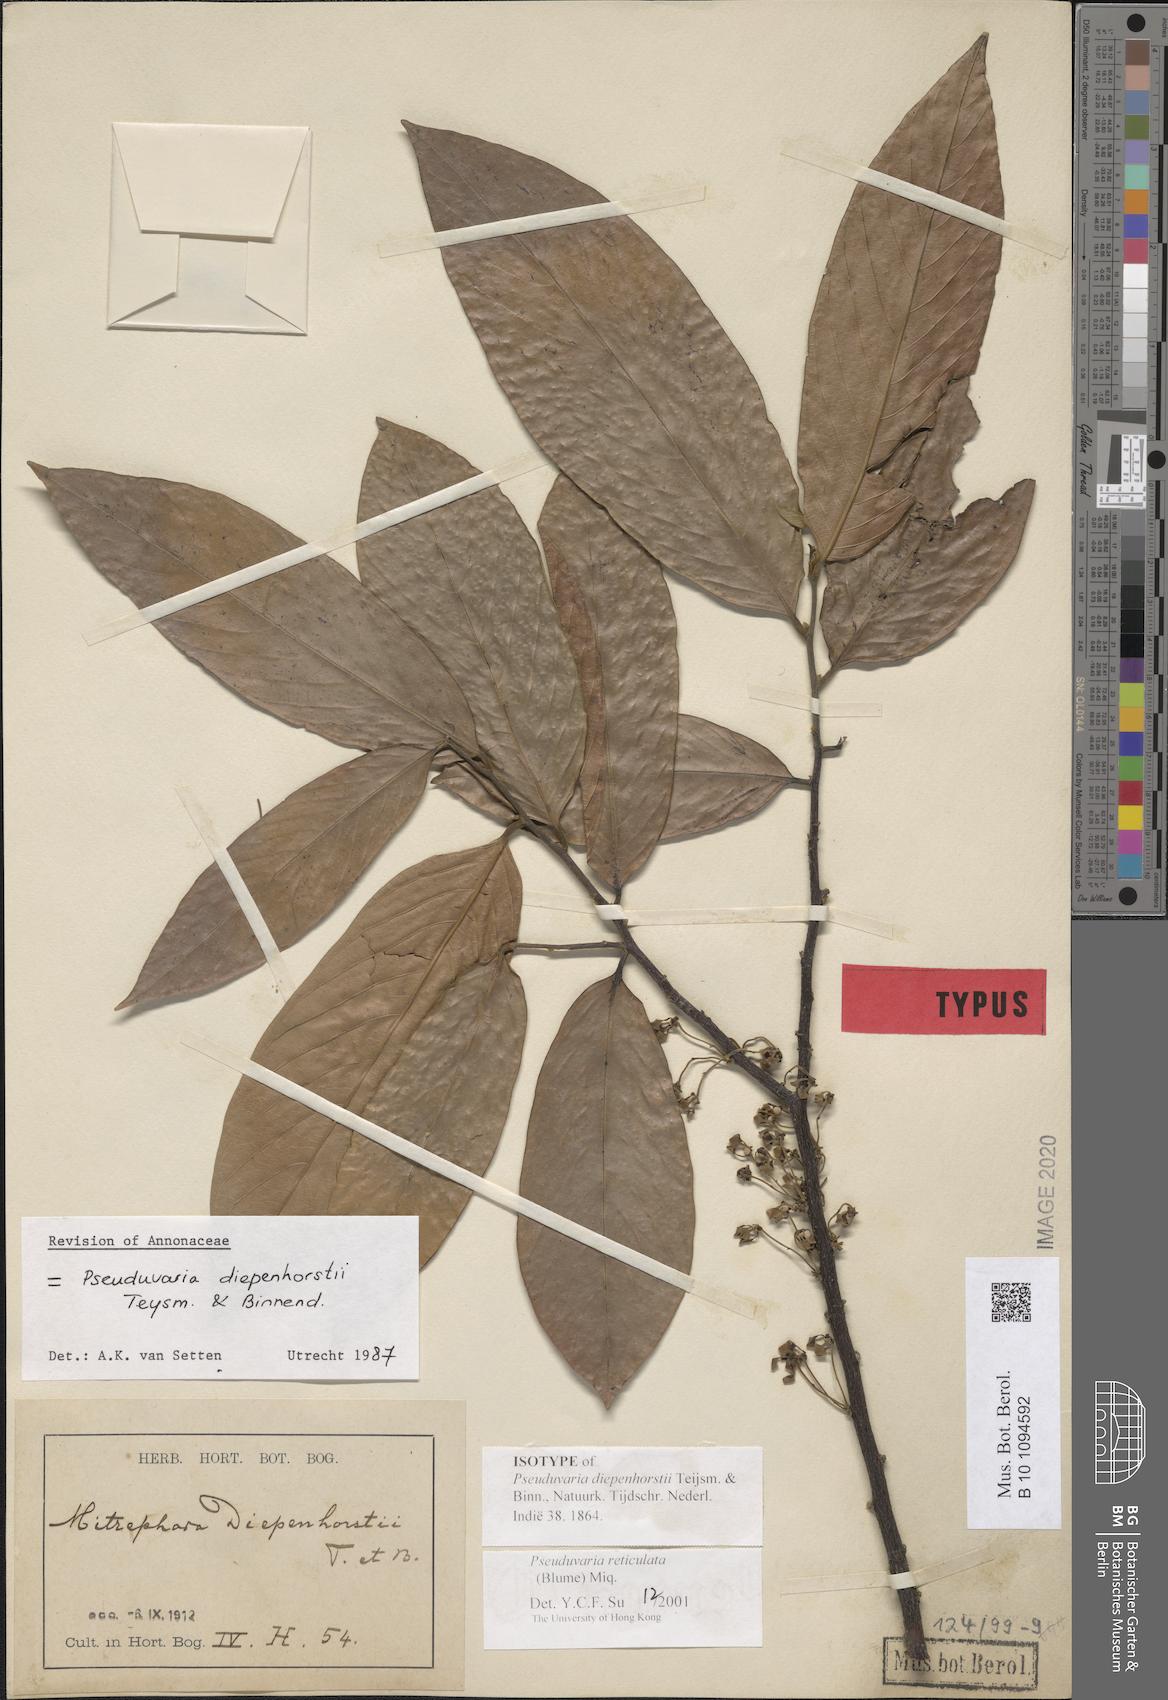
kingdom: Plantae
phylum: Tracheophyta
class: Magnoliopsida
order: Magnoliales
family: Annonaceae
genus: Pseuduvaria
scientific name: Pseuduvaria reticulata
